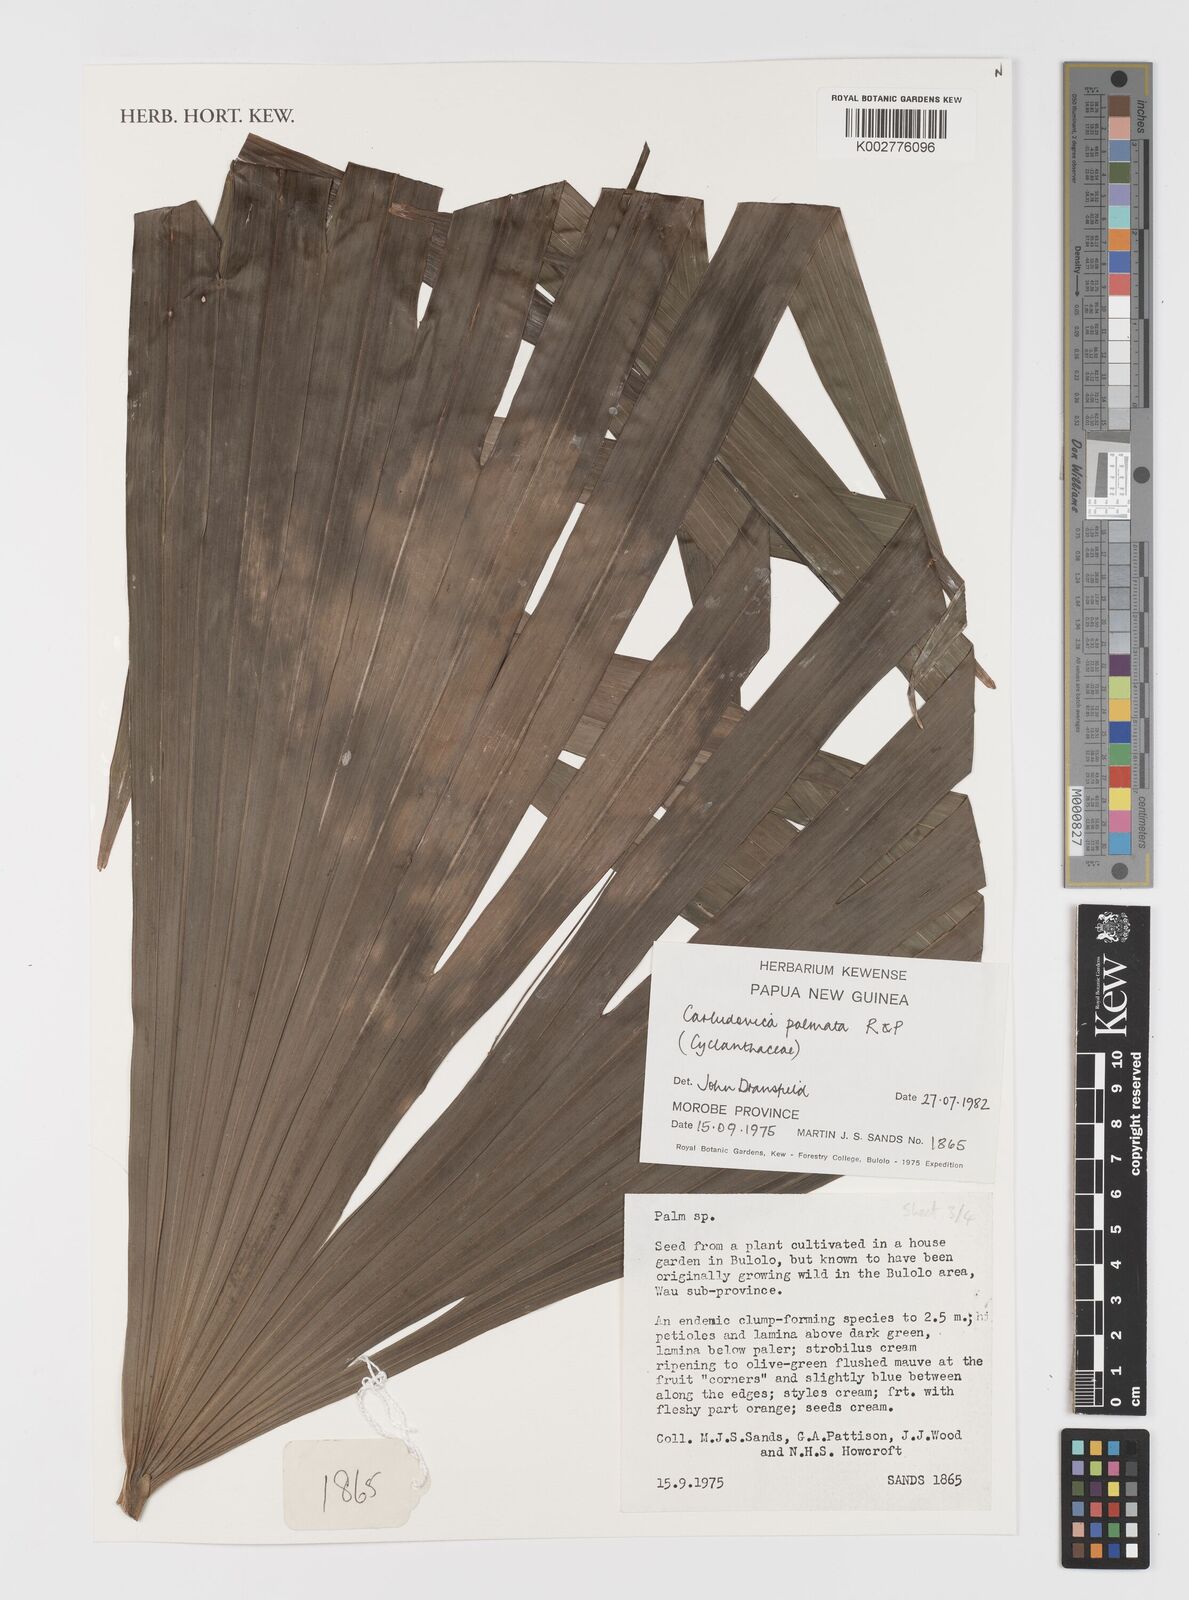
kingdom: Plantae
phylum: Tracheophyta
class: Liliopsida
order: Pandanales
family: Cyclanthaceae
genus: Carludovica
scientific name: Carludovica palmata
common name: Panama hat plant
